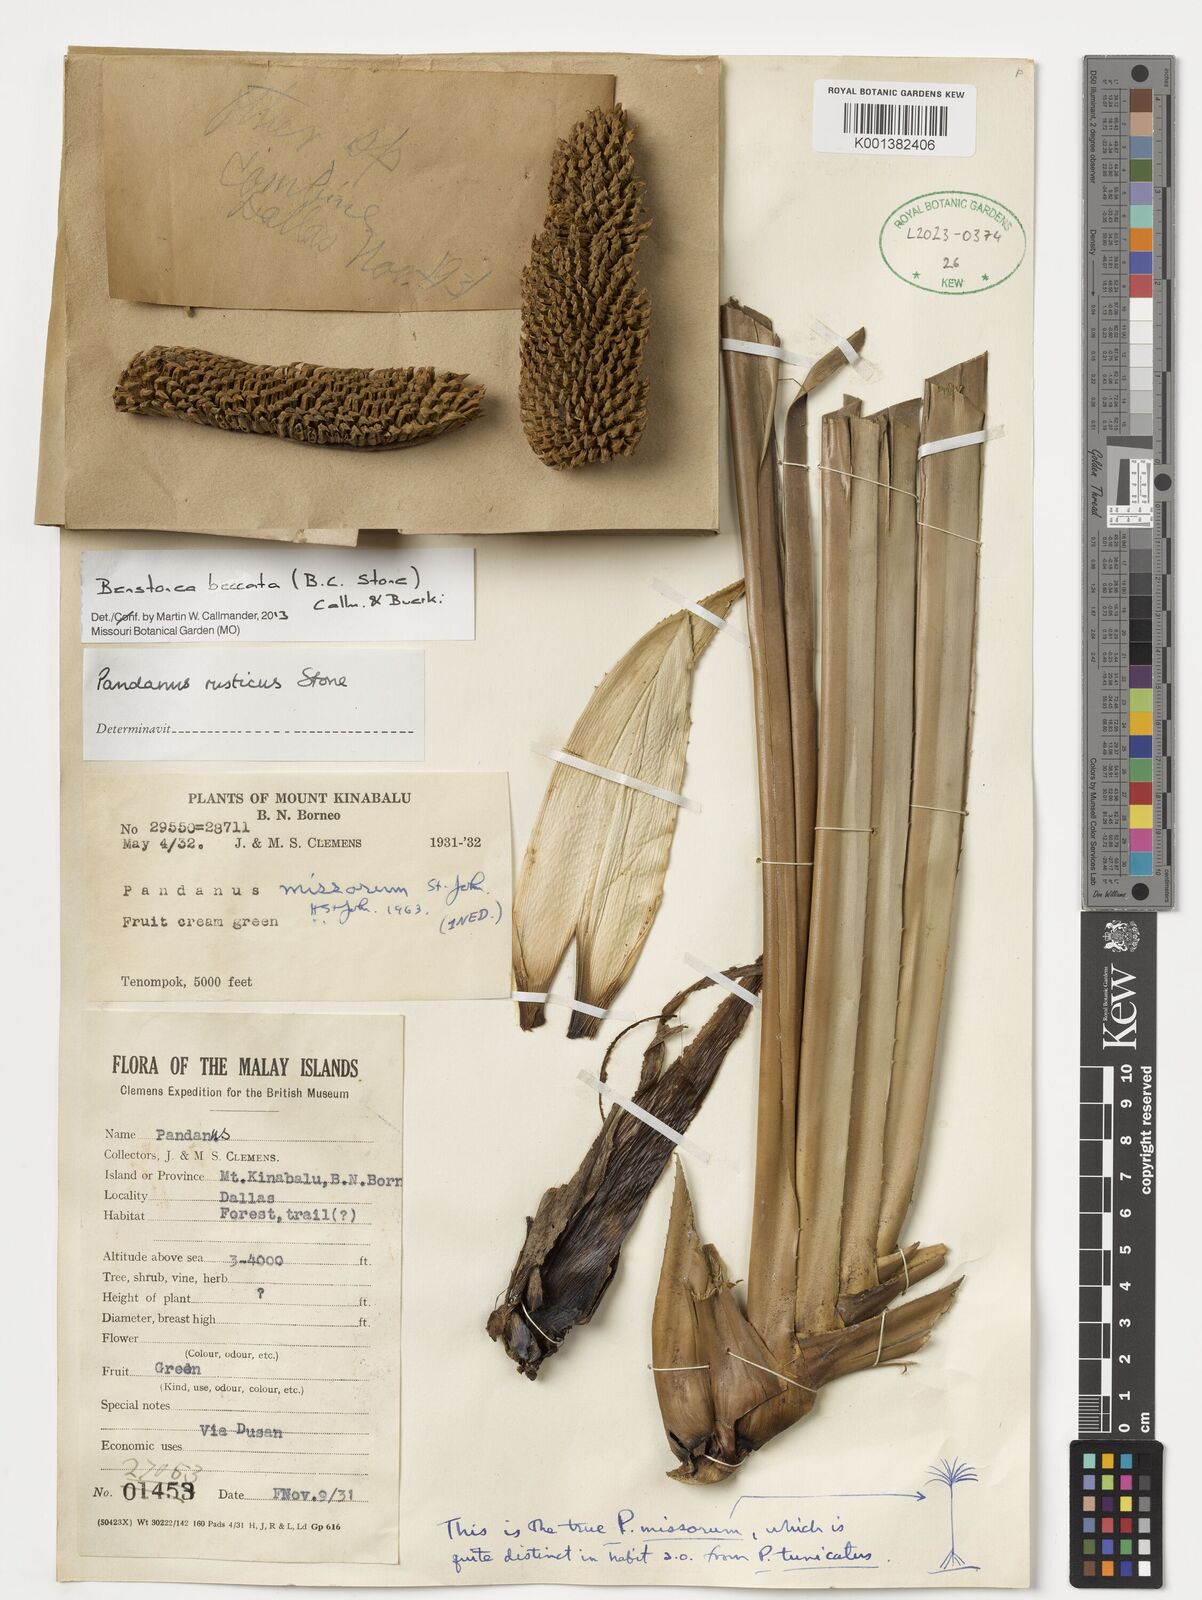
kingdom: Plantae
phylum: Tracheophyta
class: Liliopsida
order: Pandanales
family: Pandanaceae
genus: Benstonea
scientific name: Benstonea beccata
